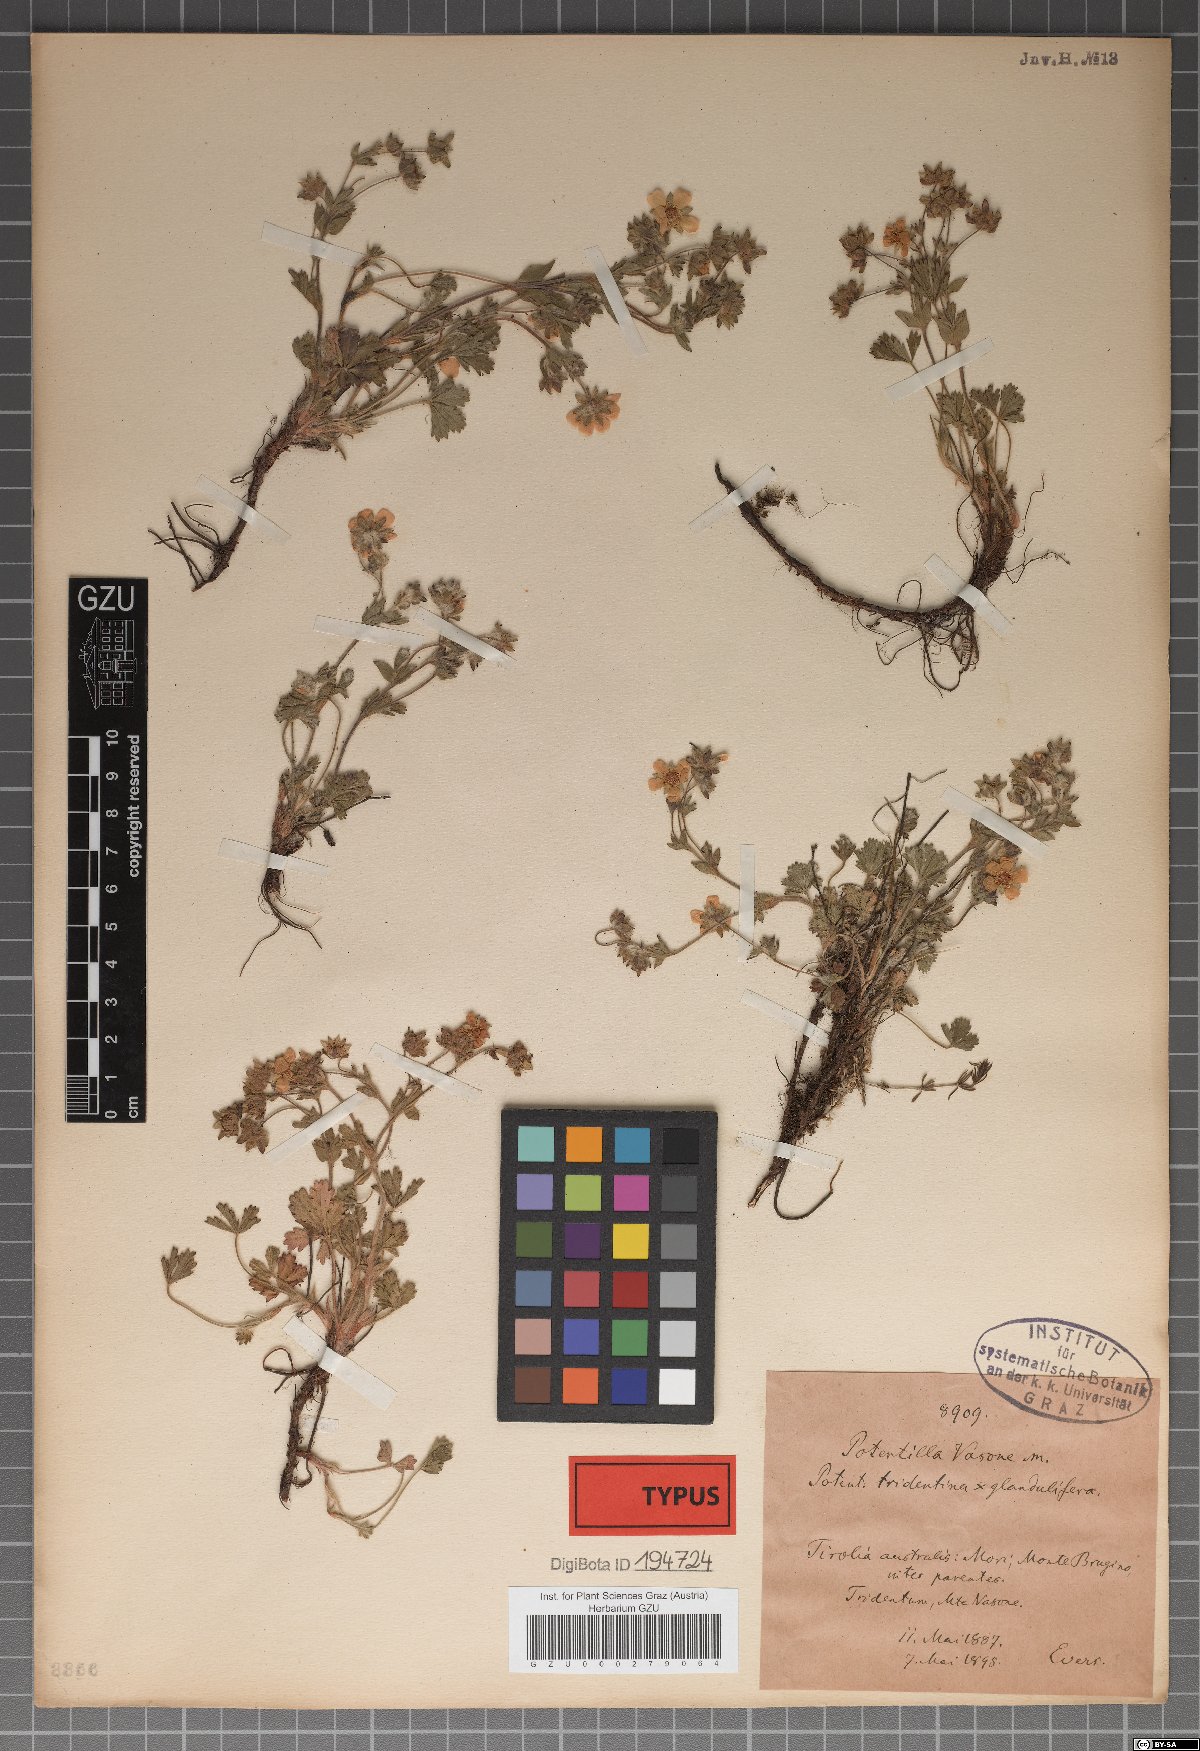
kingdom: Plantae
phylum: Tracheophyta
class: Magnoliopsida
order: Rosales
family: Rosaceae
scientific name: Rosaceae
